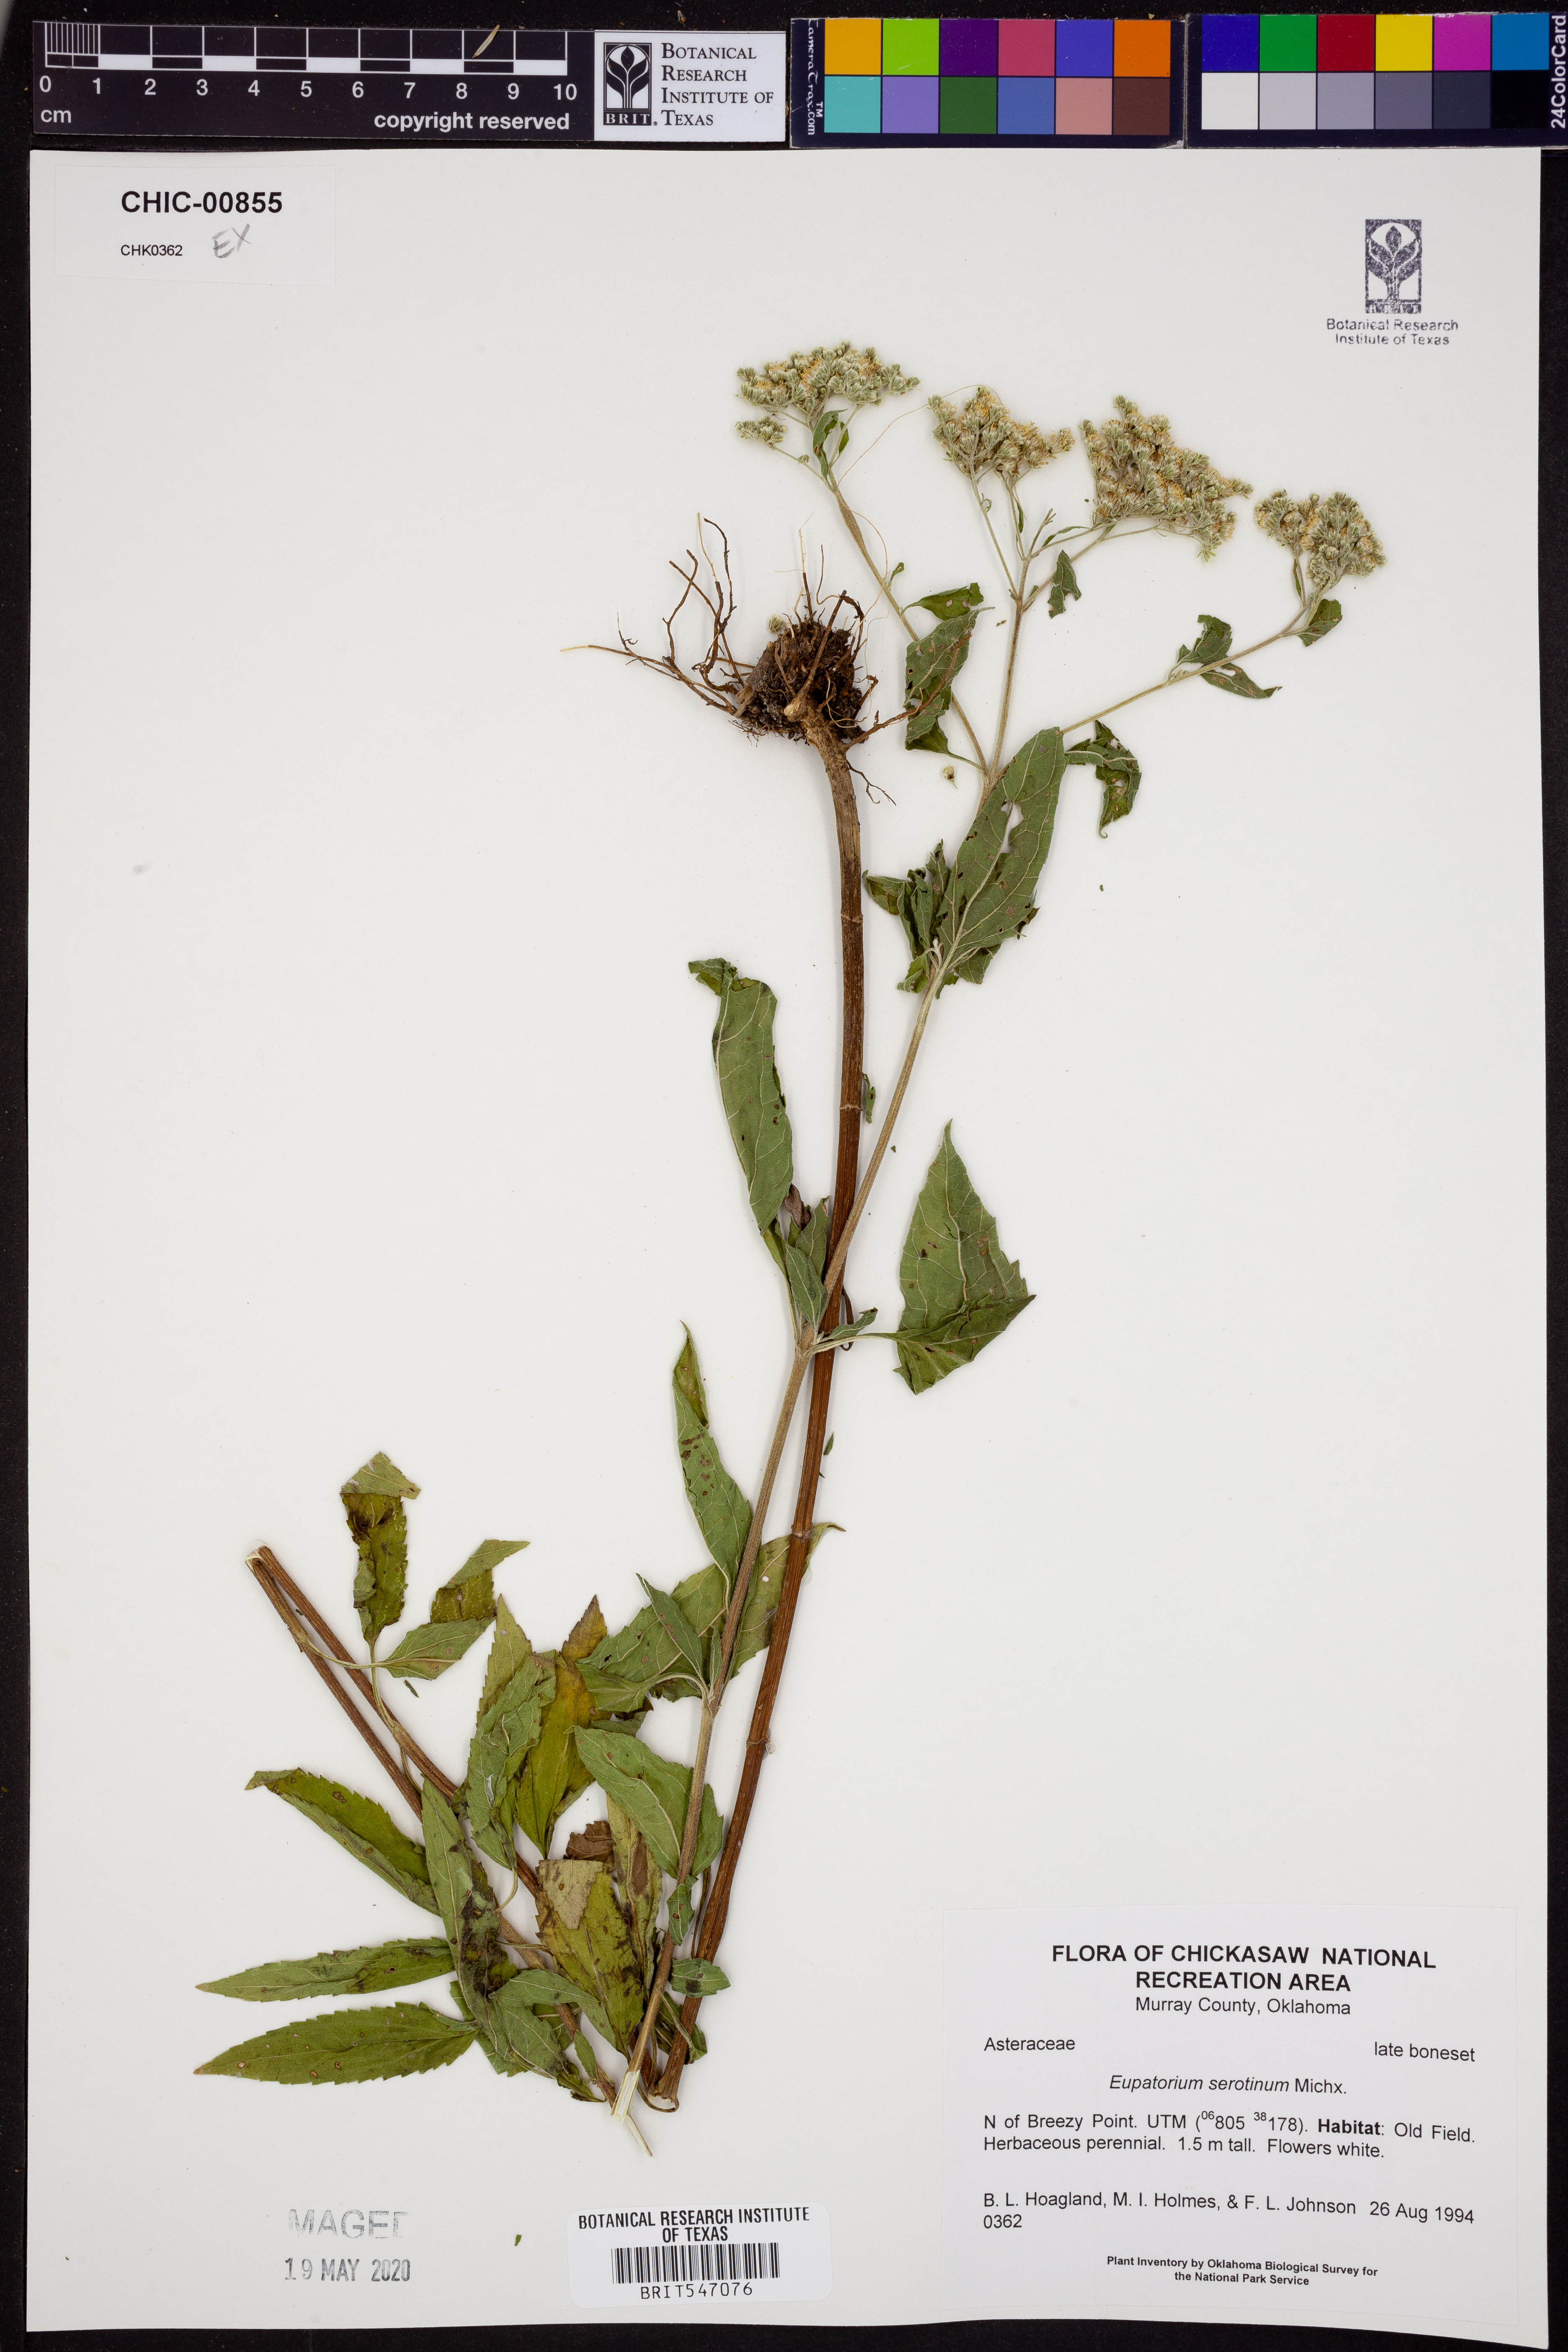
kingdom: Plantae
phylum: Tracheophyta
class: Magnoliopsida
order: Asterales
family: Asteraceae
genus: Eupatorium
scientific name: Eupatorium serotinum
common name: Late boneset
